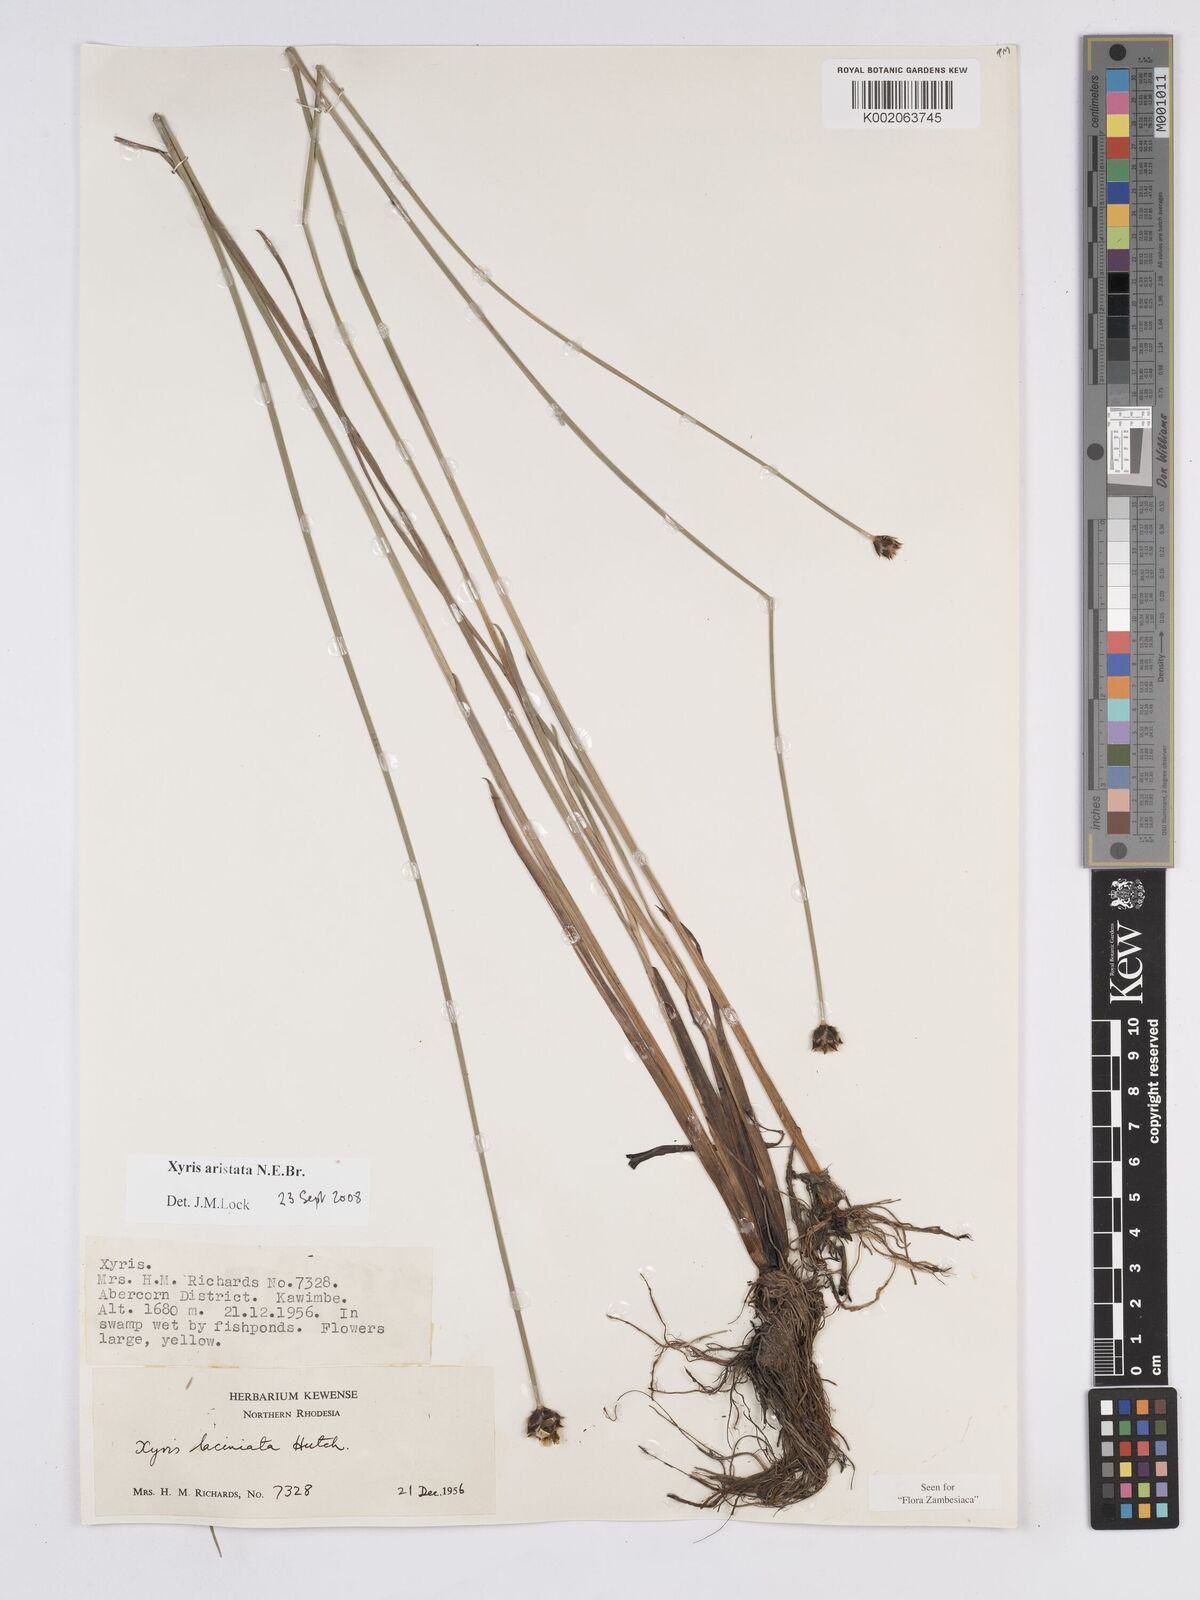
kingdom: Plantae
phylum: Tracheophyta
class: Liliopsida
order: Poales
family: Xyridaceae
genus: Xyris
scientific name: Xyris aristata
